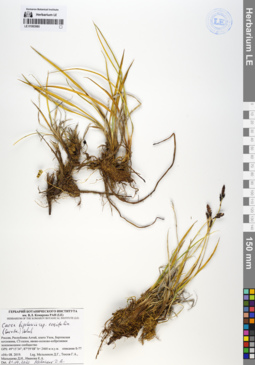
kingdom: Plantae
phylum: Tracheophyta
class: Liliopsida
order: Poales
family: Cyperaceae
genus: Carex
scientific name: Carex bigelowii
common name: Stiff sedge
